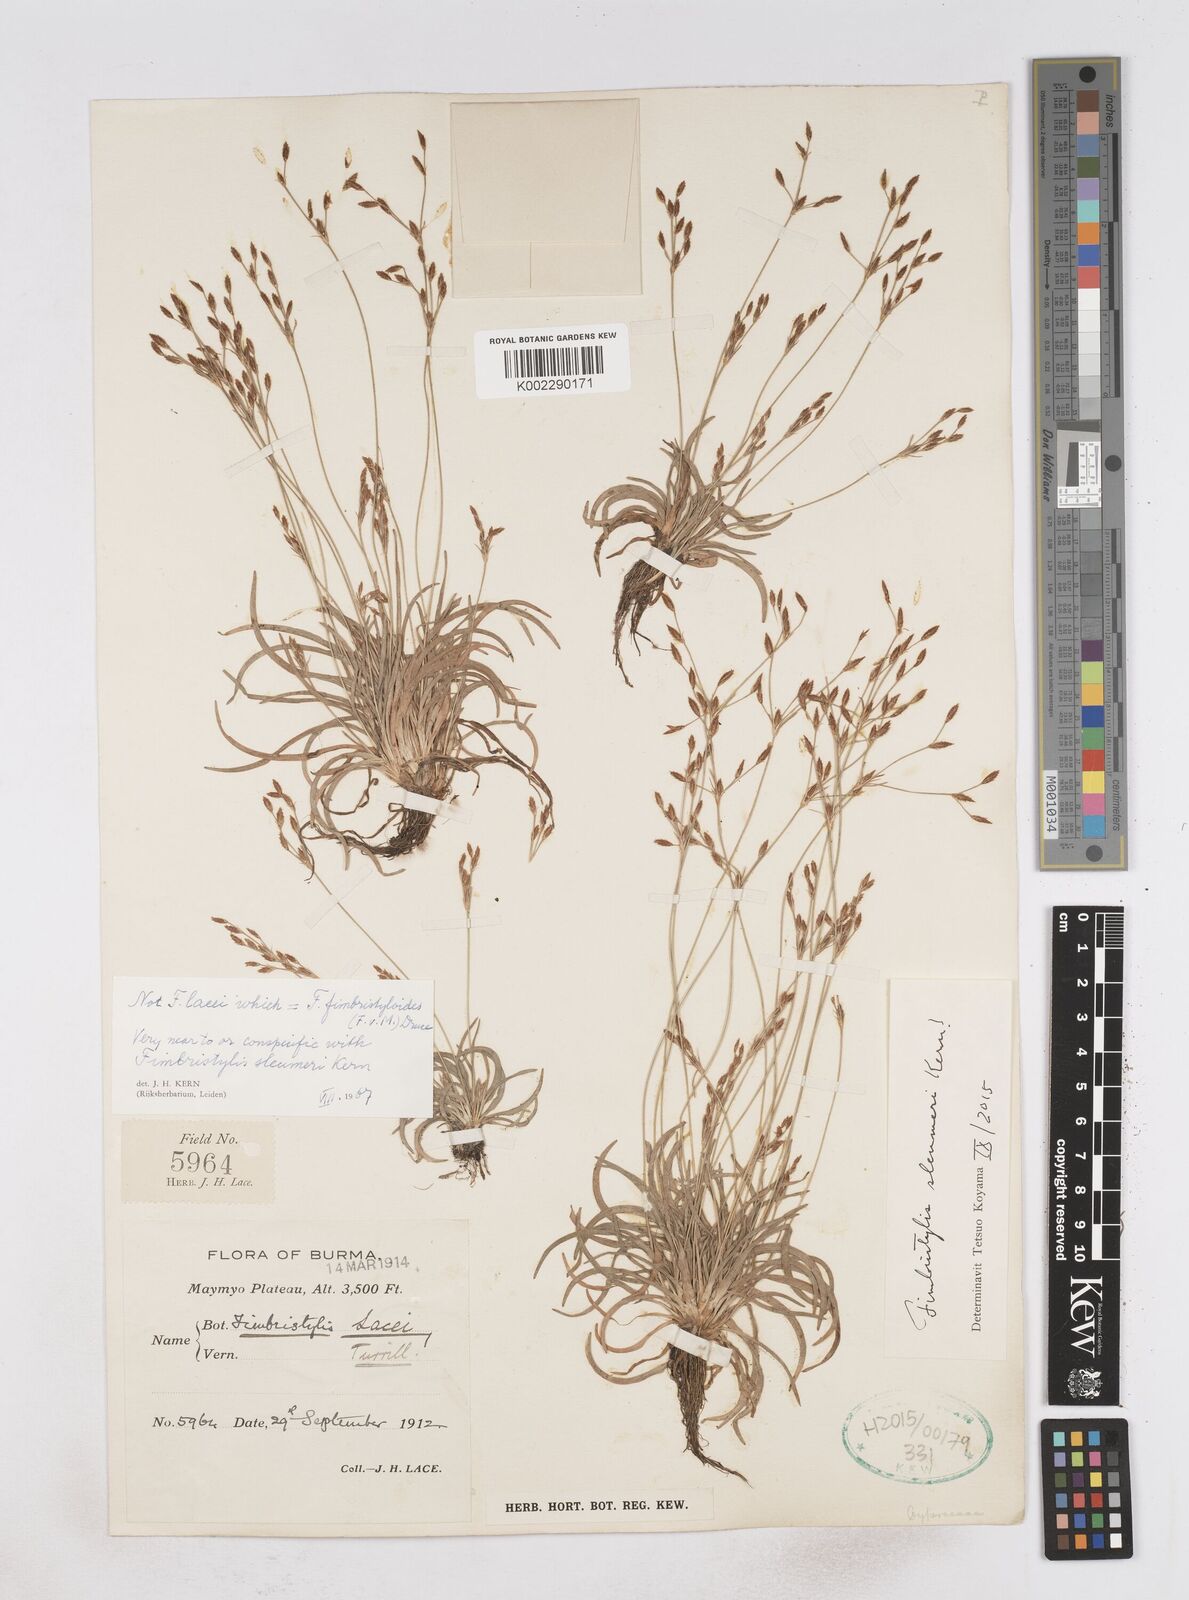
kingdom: Plantae
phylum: Tracheophyta
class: Liliopsida
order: Poales
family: Cyperaceae
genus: Fimbristylis
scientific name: Fimbristylis sleumeri
